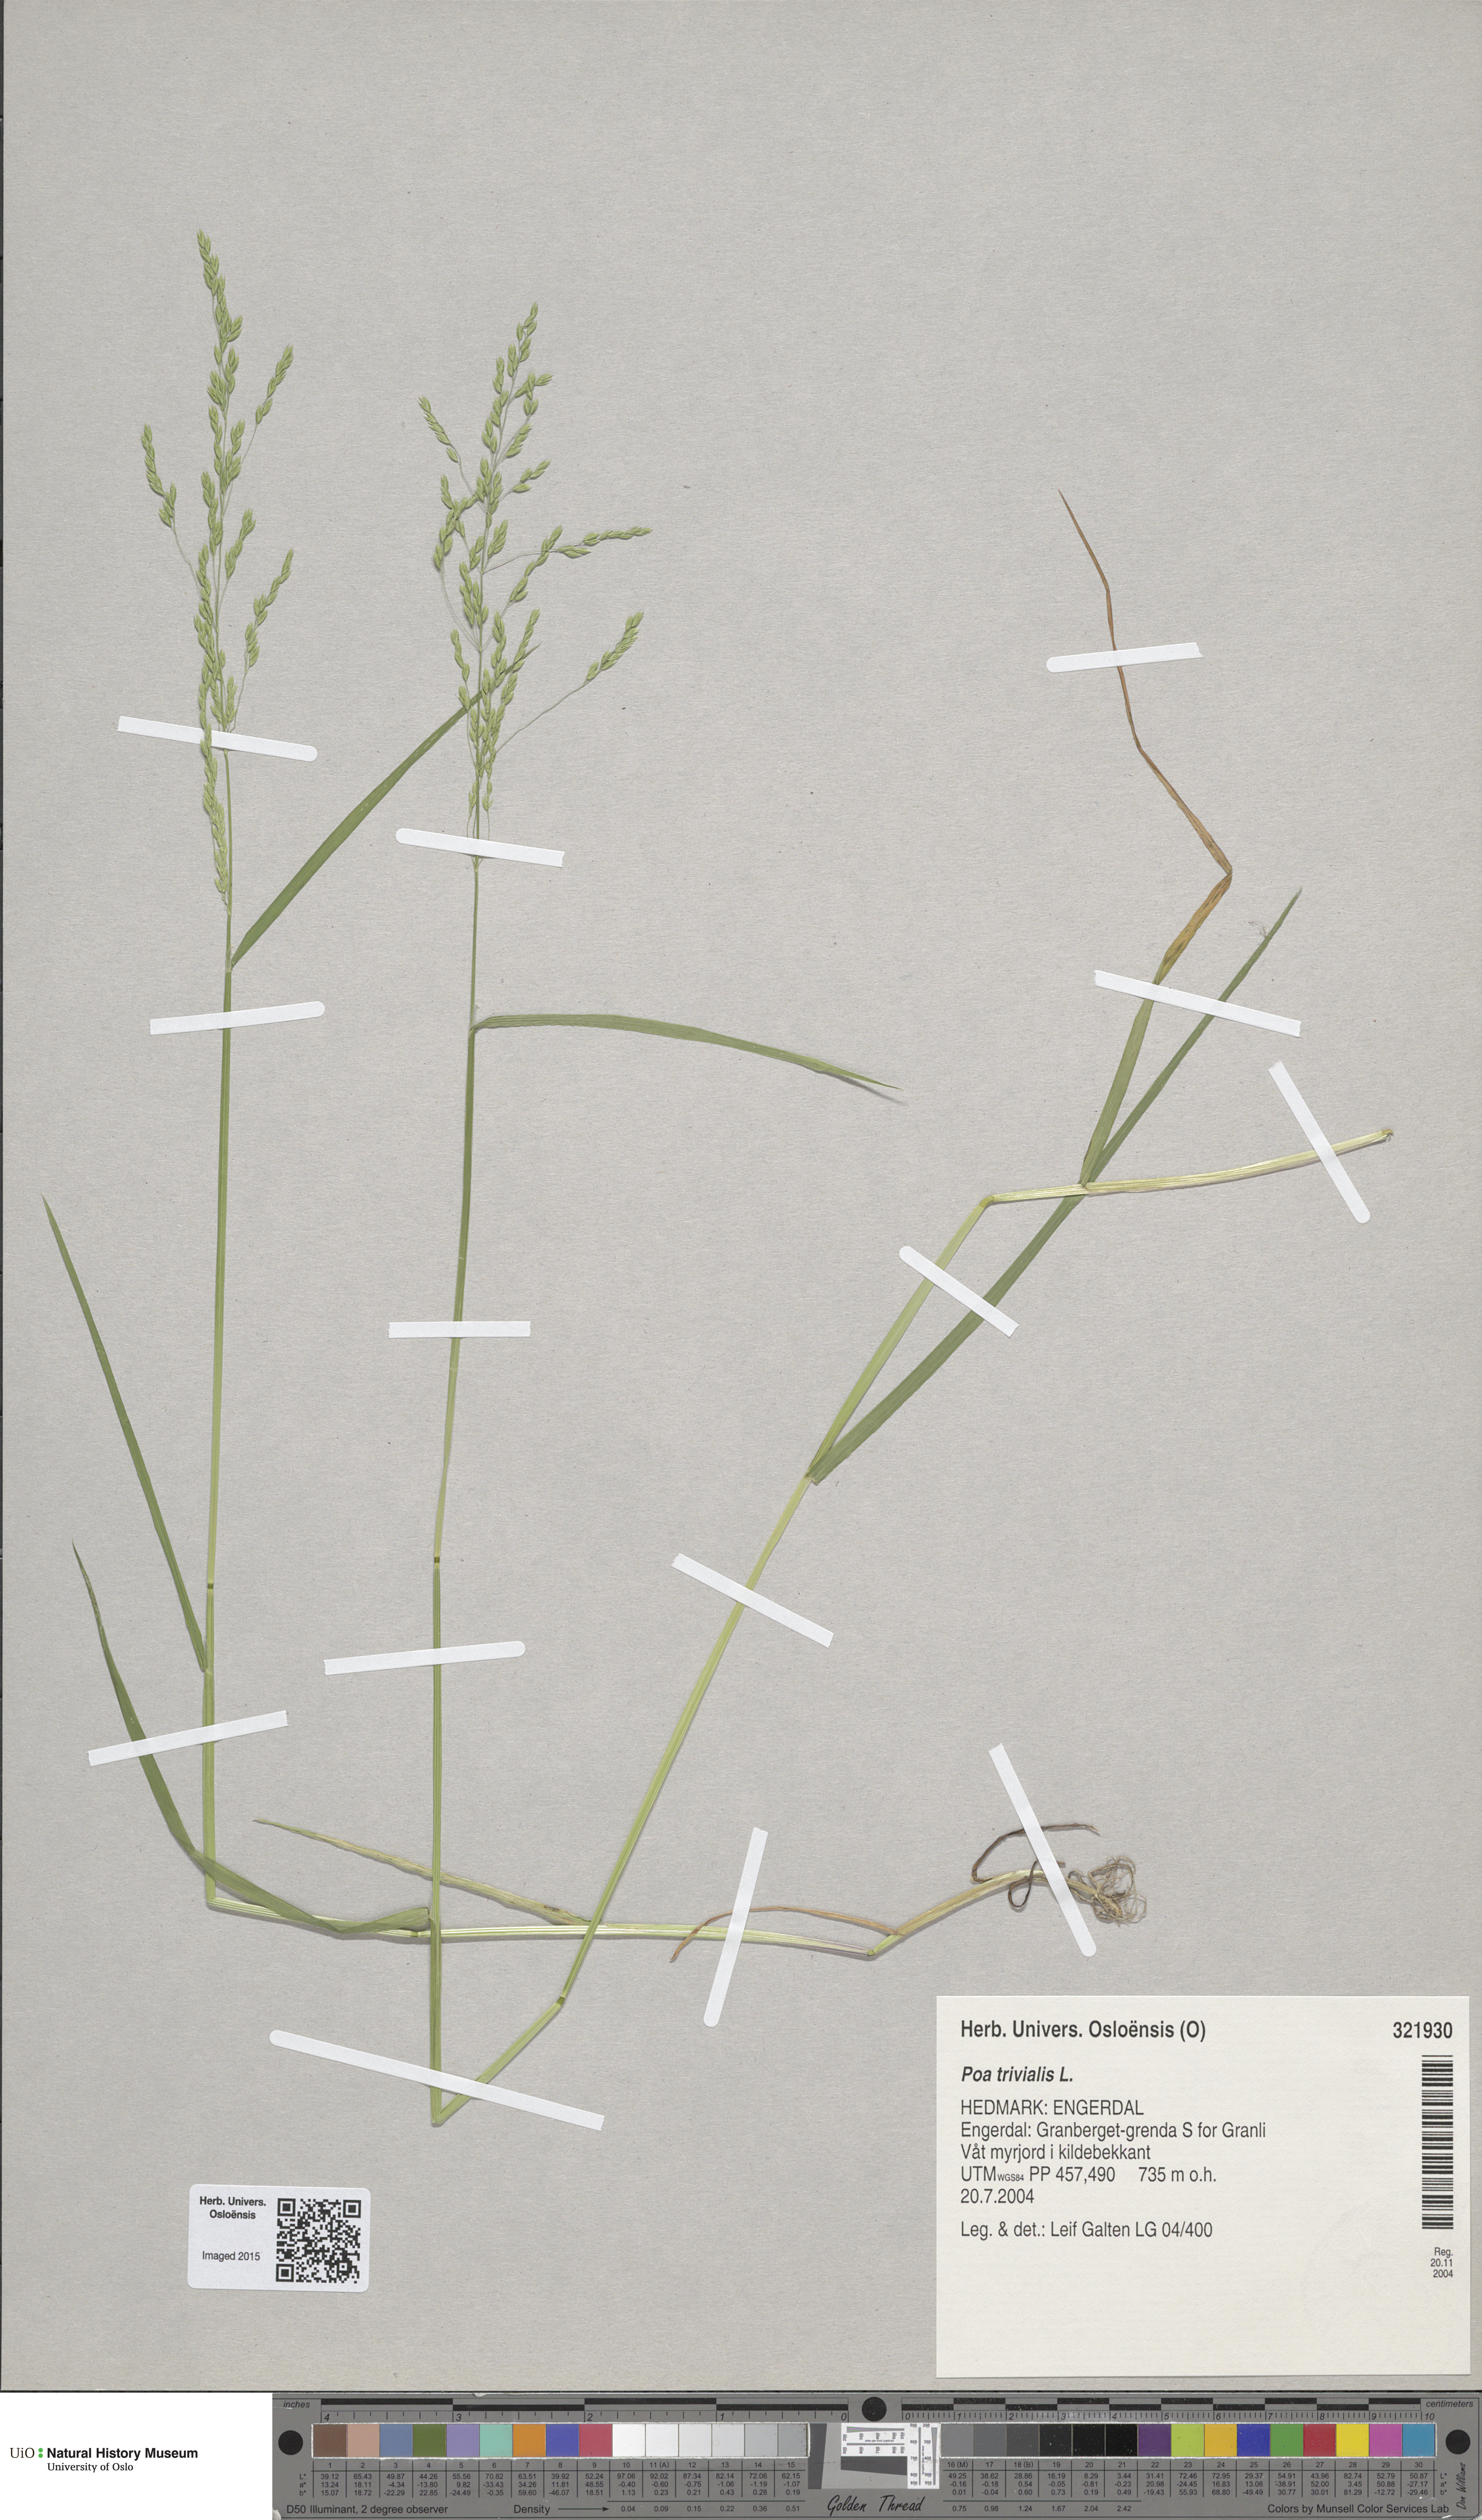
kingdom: Plantae
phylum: Tracheophyta
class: Liliopsida
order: Poales
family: Poaceae
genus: Poa
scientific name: Poa trivialis
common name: Rough bluegrass
